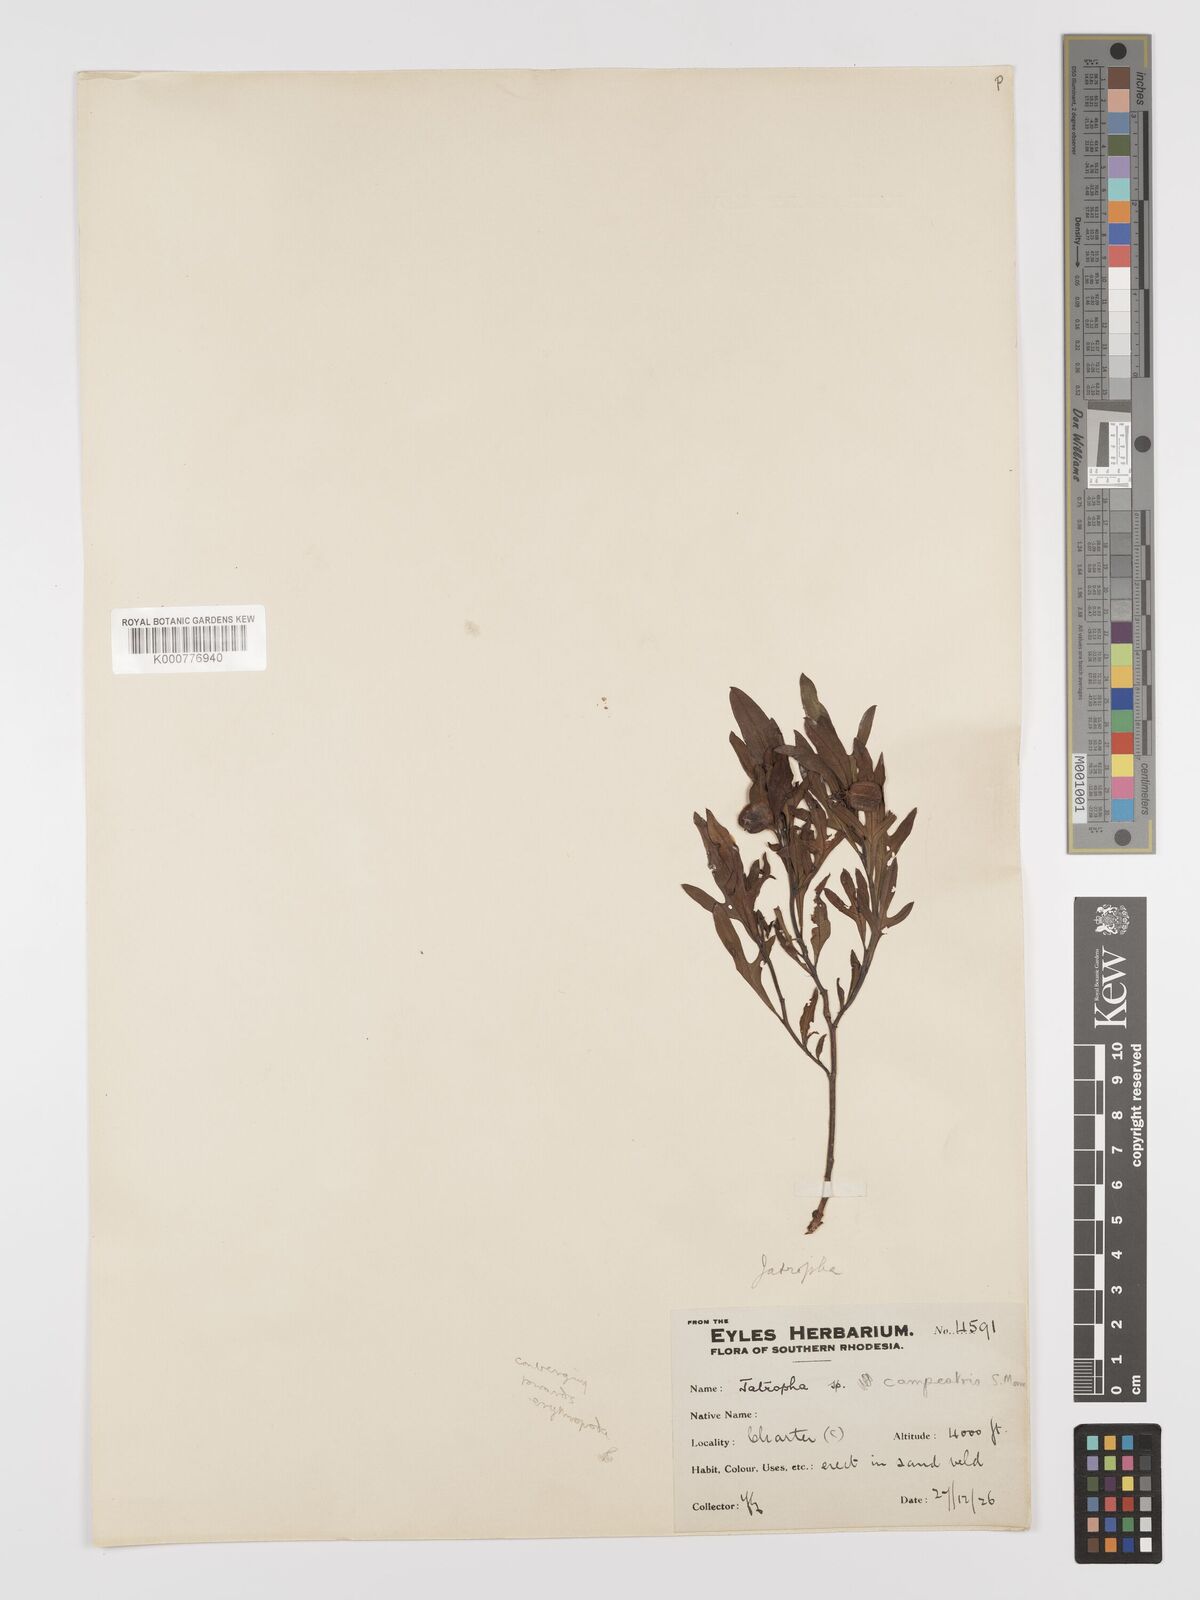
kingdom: Plantae
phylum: Tracheophyta
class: Magnoliopsida
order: Malpighiales
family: Euphorbiaceae
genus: Jatropha
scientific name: Jatropha campestris
